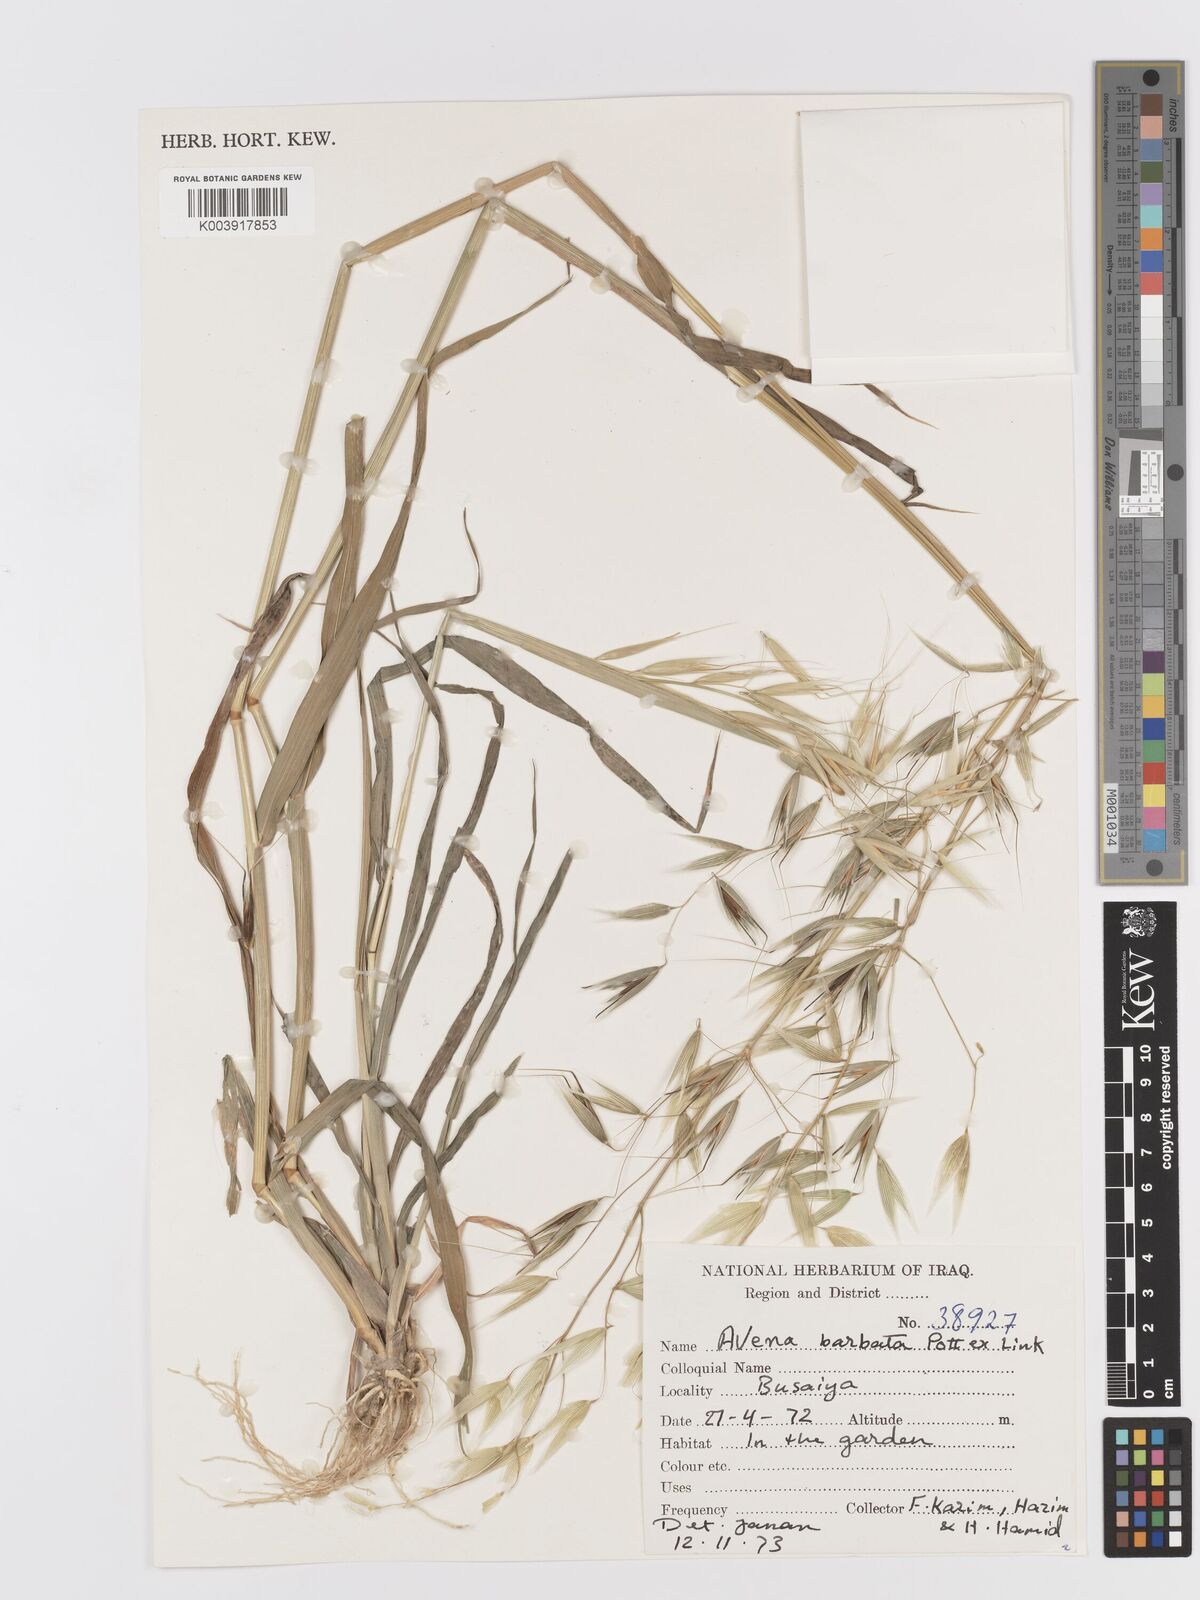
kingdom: Plantae
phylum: Tracheophyta
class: Liliopsida
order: Poales
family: Poaceae
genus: Avena
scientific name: Avena
